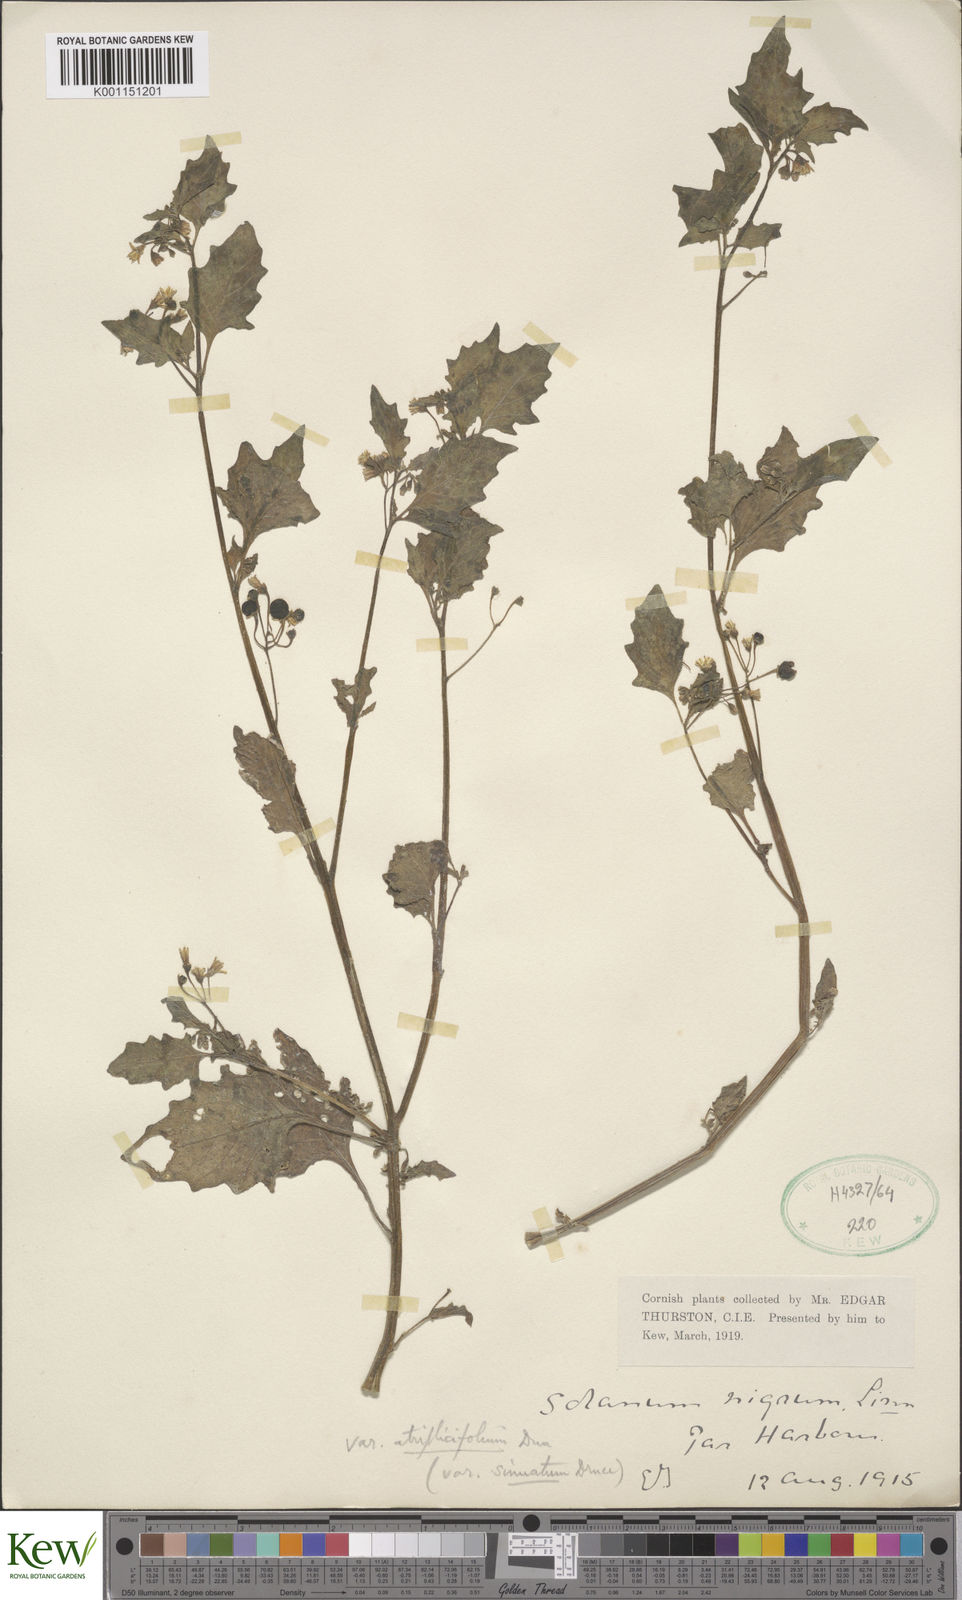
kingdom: Plantae
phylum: Tracheophyta
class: Magnoliopsida
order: Solanales
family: Solanaceae
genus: Solanum
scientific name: Solanum nigrum
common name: Black nightshade
